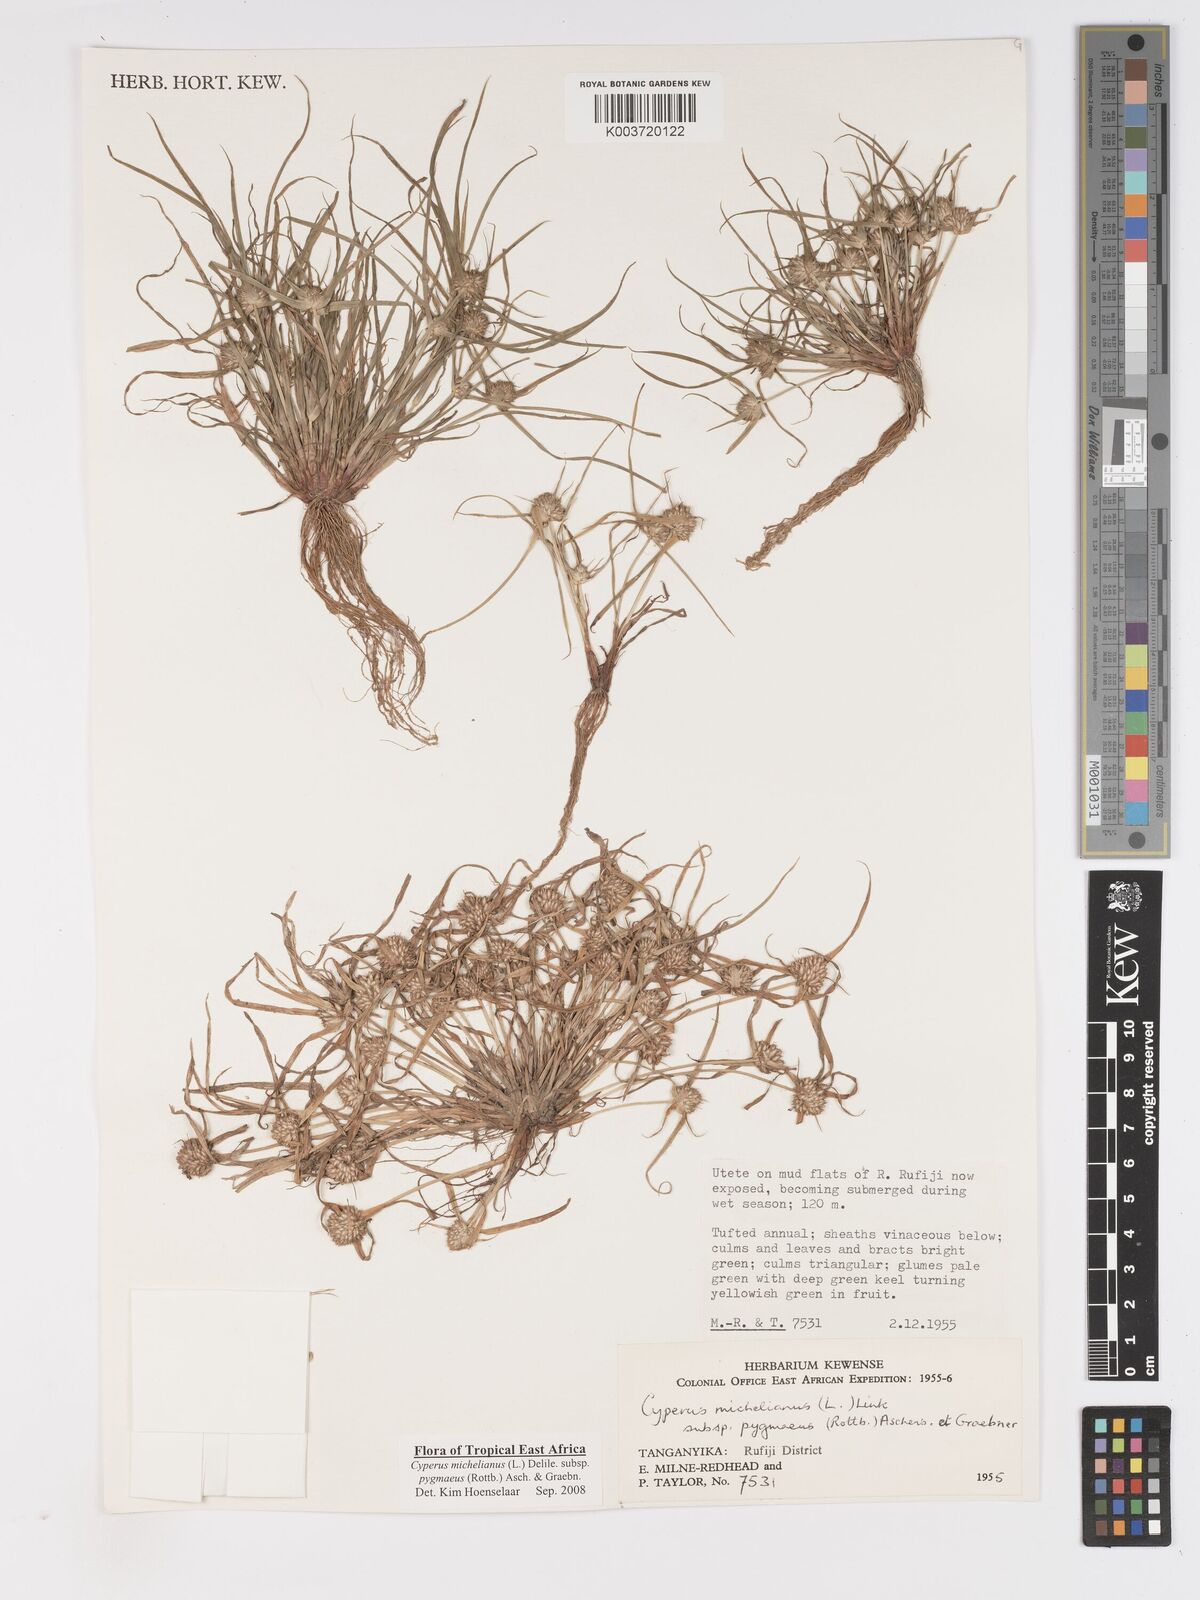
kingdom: Plantae
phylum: Tracheophyta
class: Liliopsida
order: Poales
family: Cyperaceae
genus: Cyperus
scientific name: Cyperus michelianus
